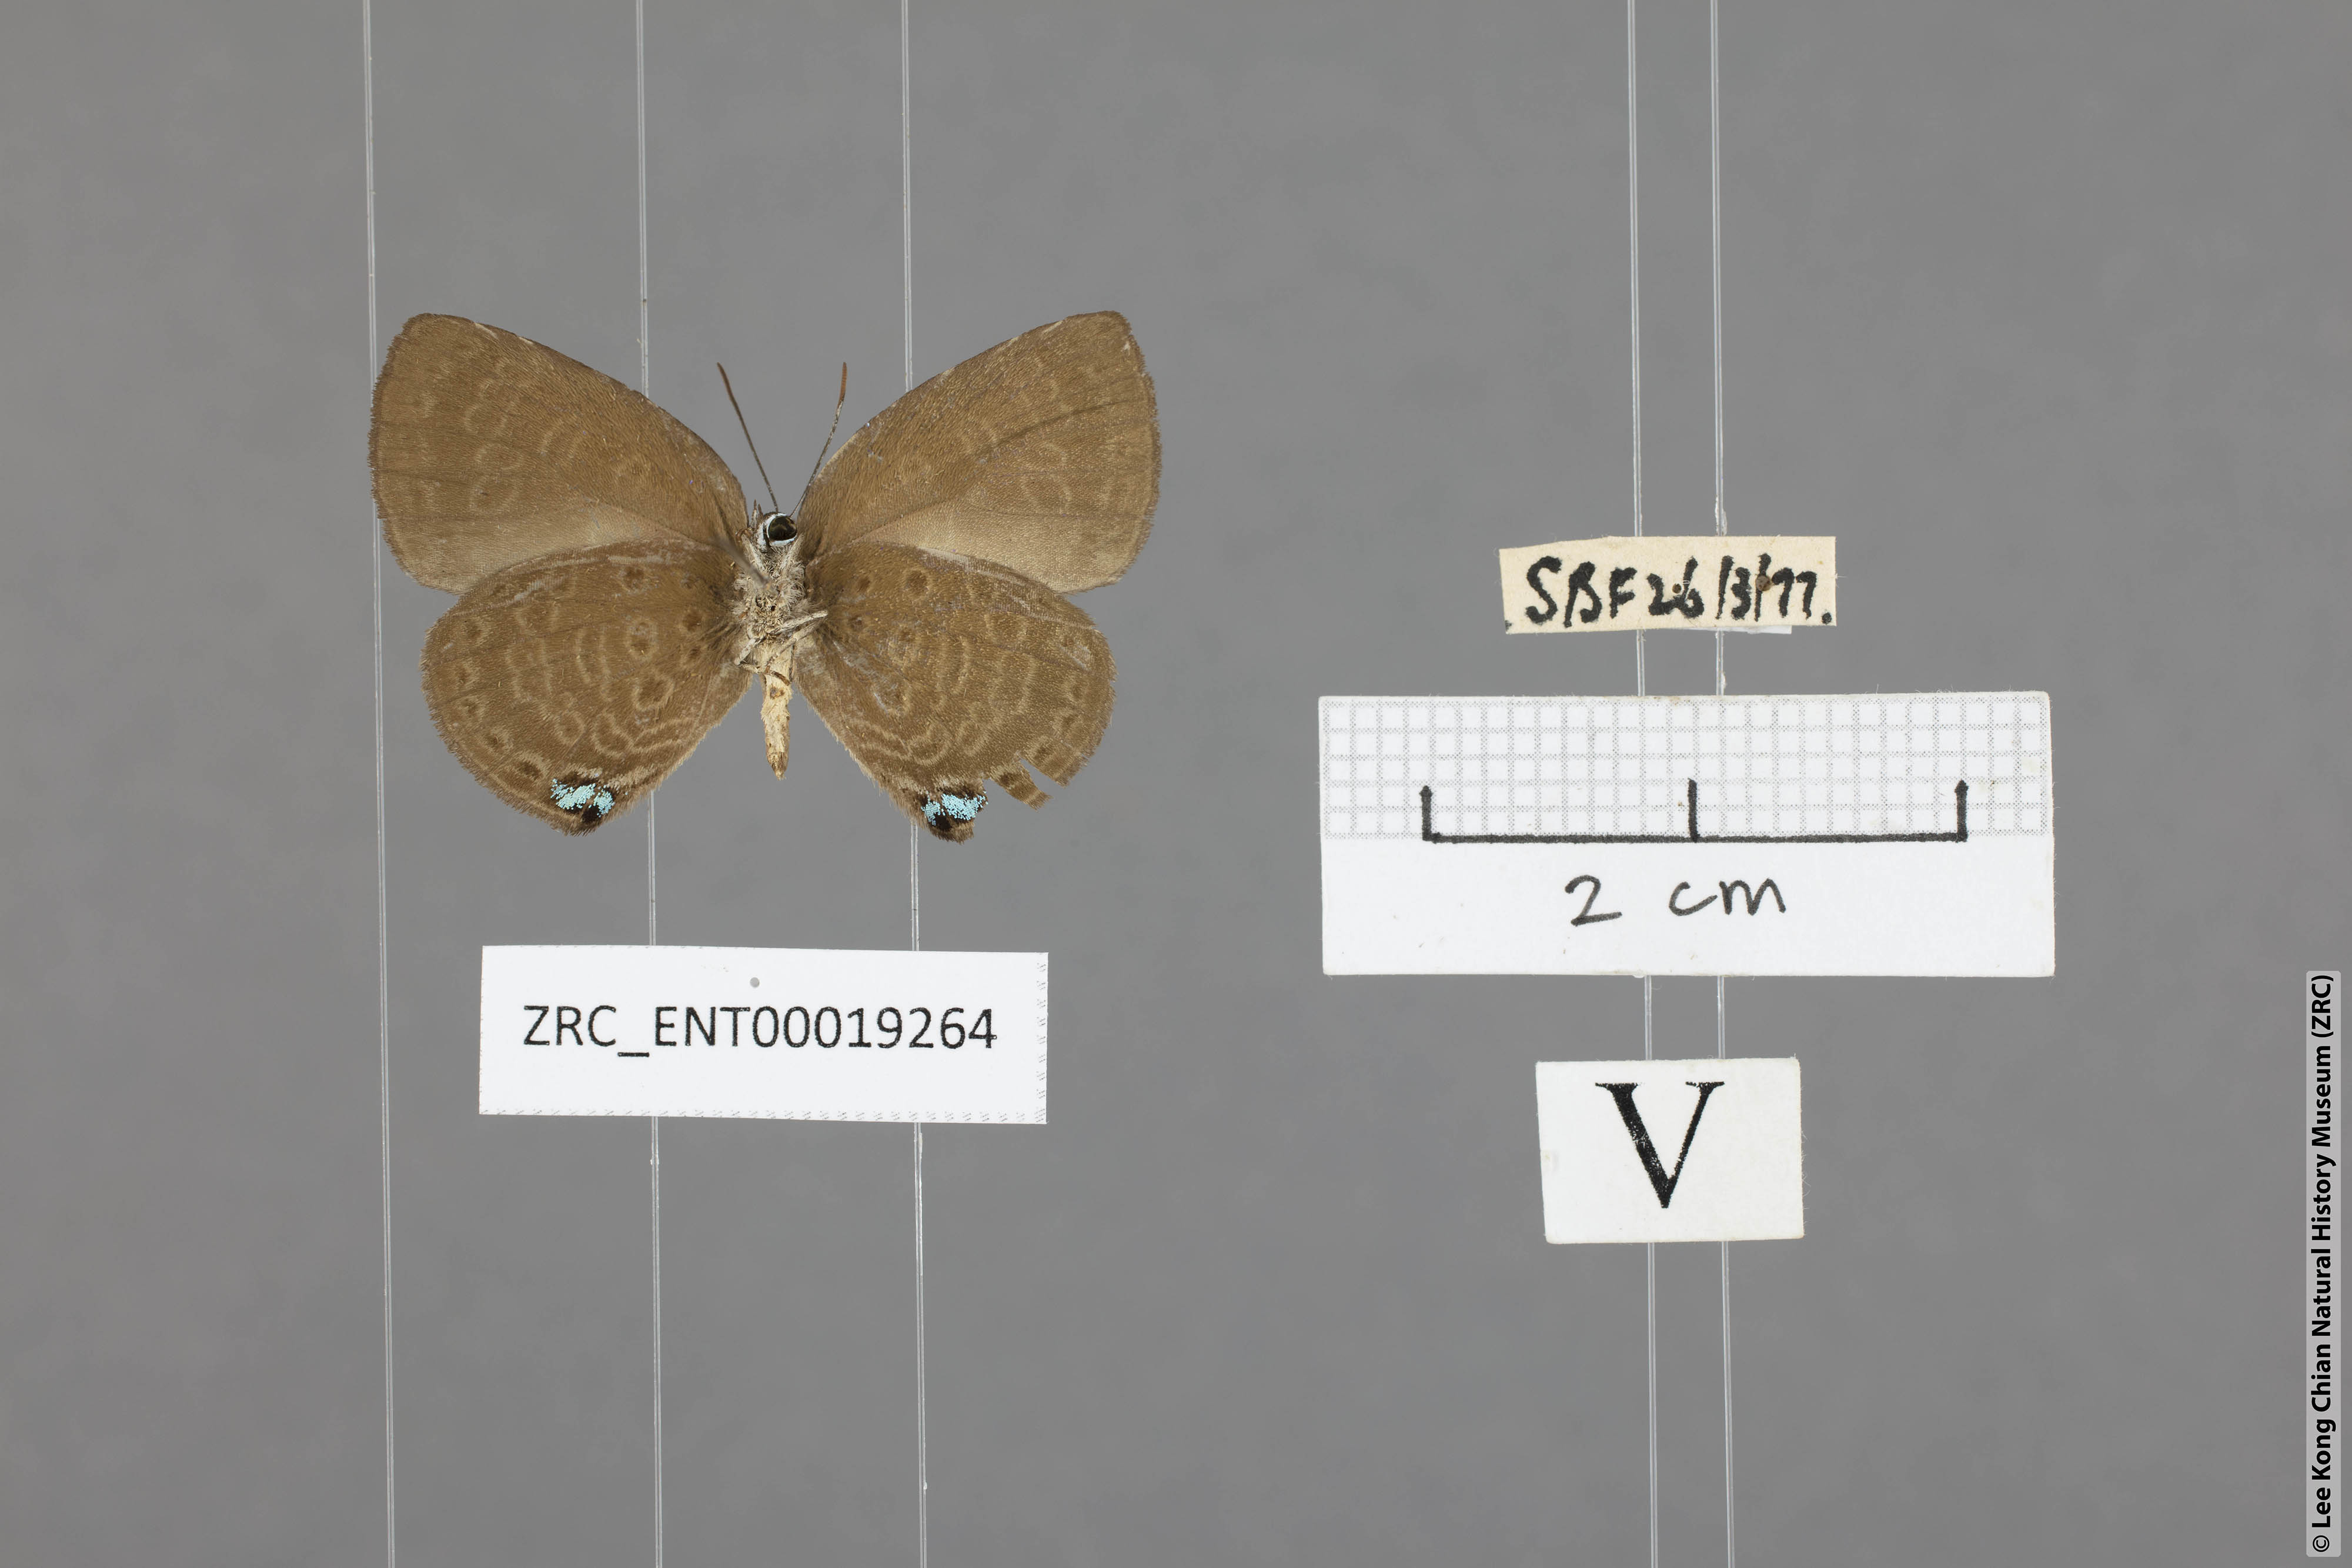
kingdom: Animalia
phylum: Arthropoda
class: Insecta
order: Lepidoptera
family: Lycaenidae
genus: Arhopala
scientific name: Arhopala avathina
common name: Lunulate yellow oakblue
